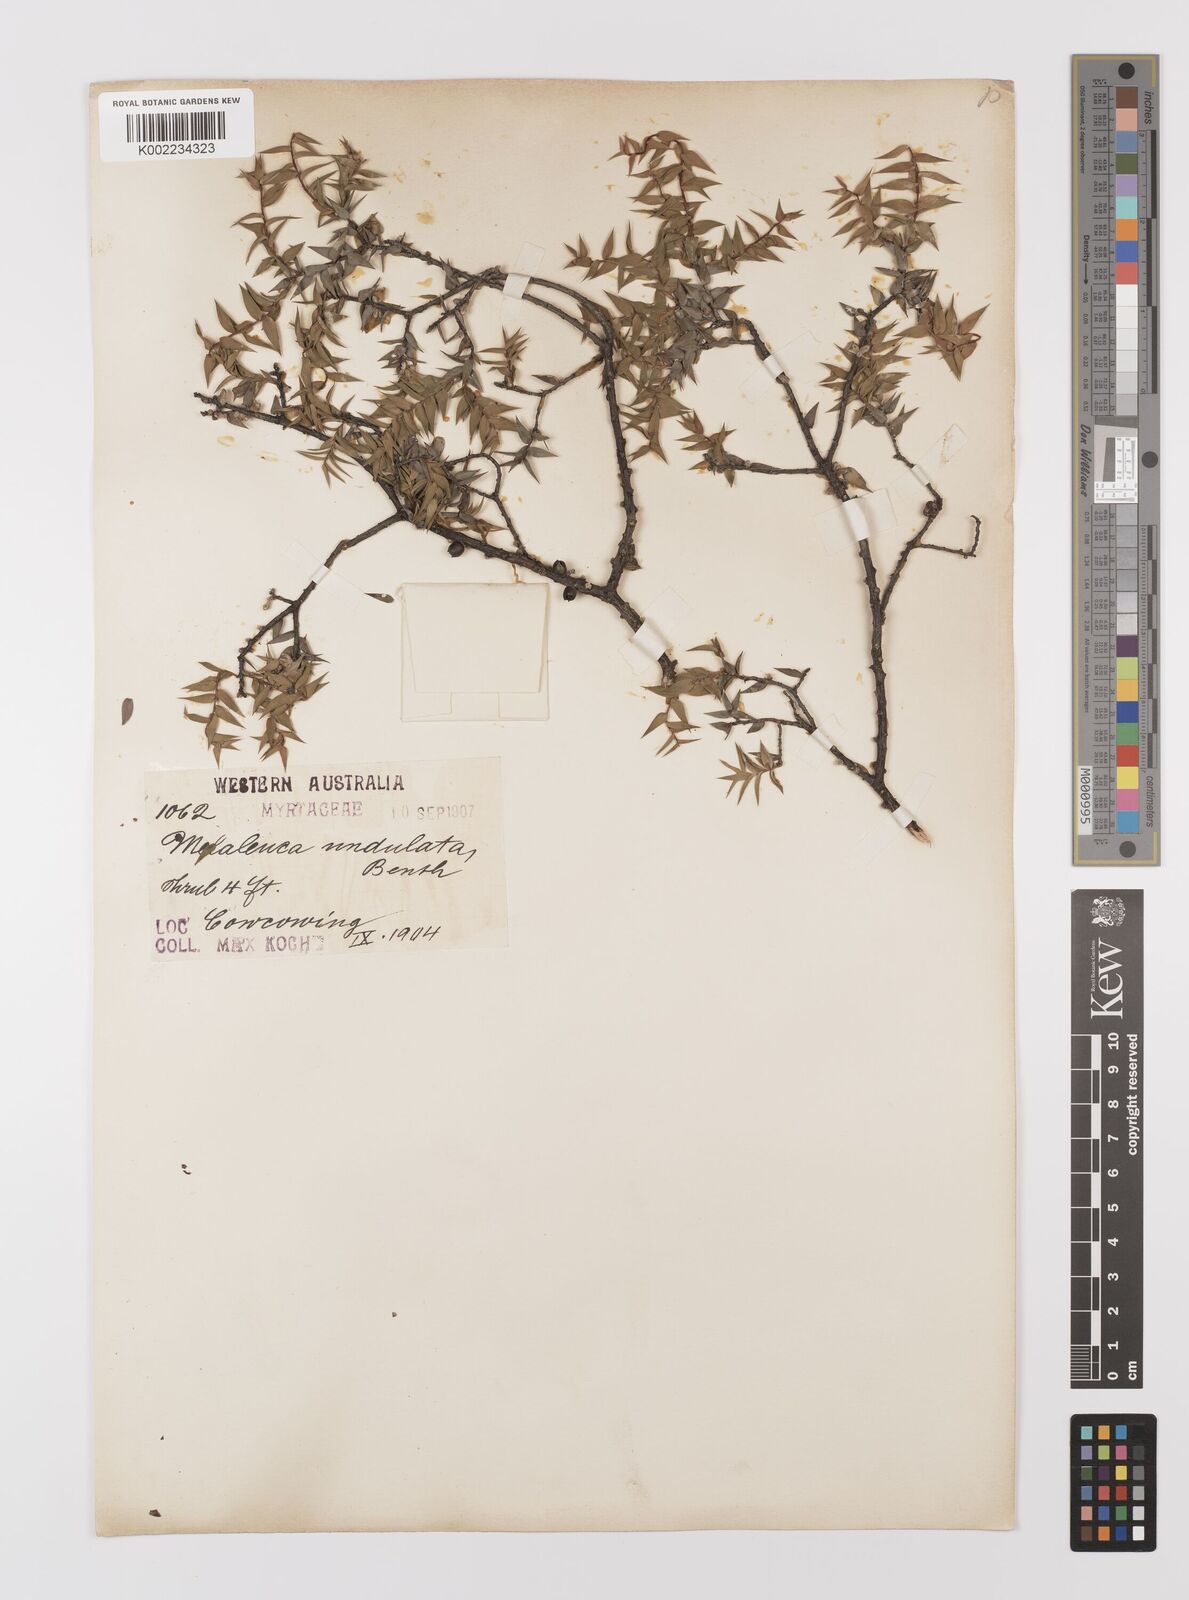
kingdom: Plantae
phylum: Tracheophyta
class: Magnoliopsida
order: Myrtales
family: Myrtaceae
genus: Melaleuca
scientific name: Melaleuca undulata
